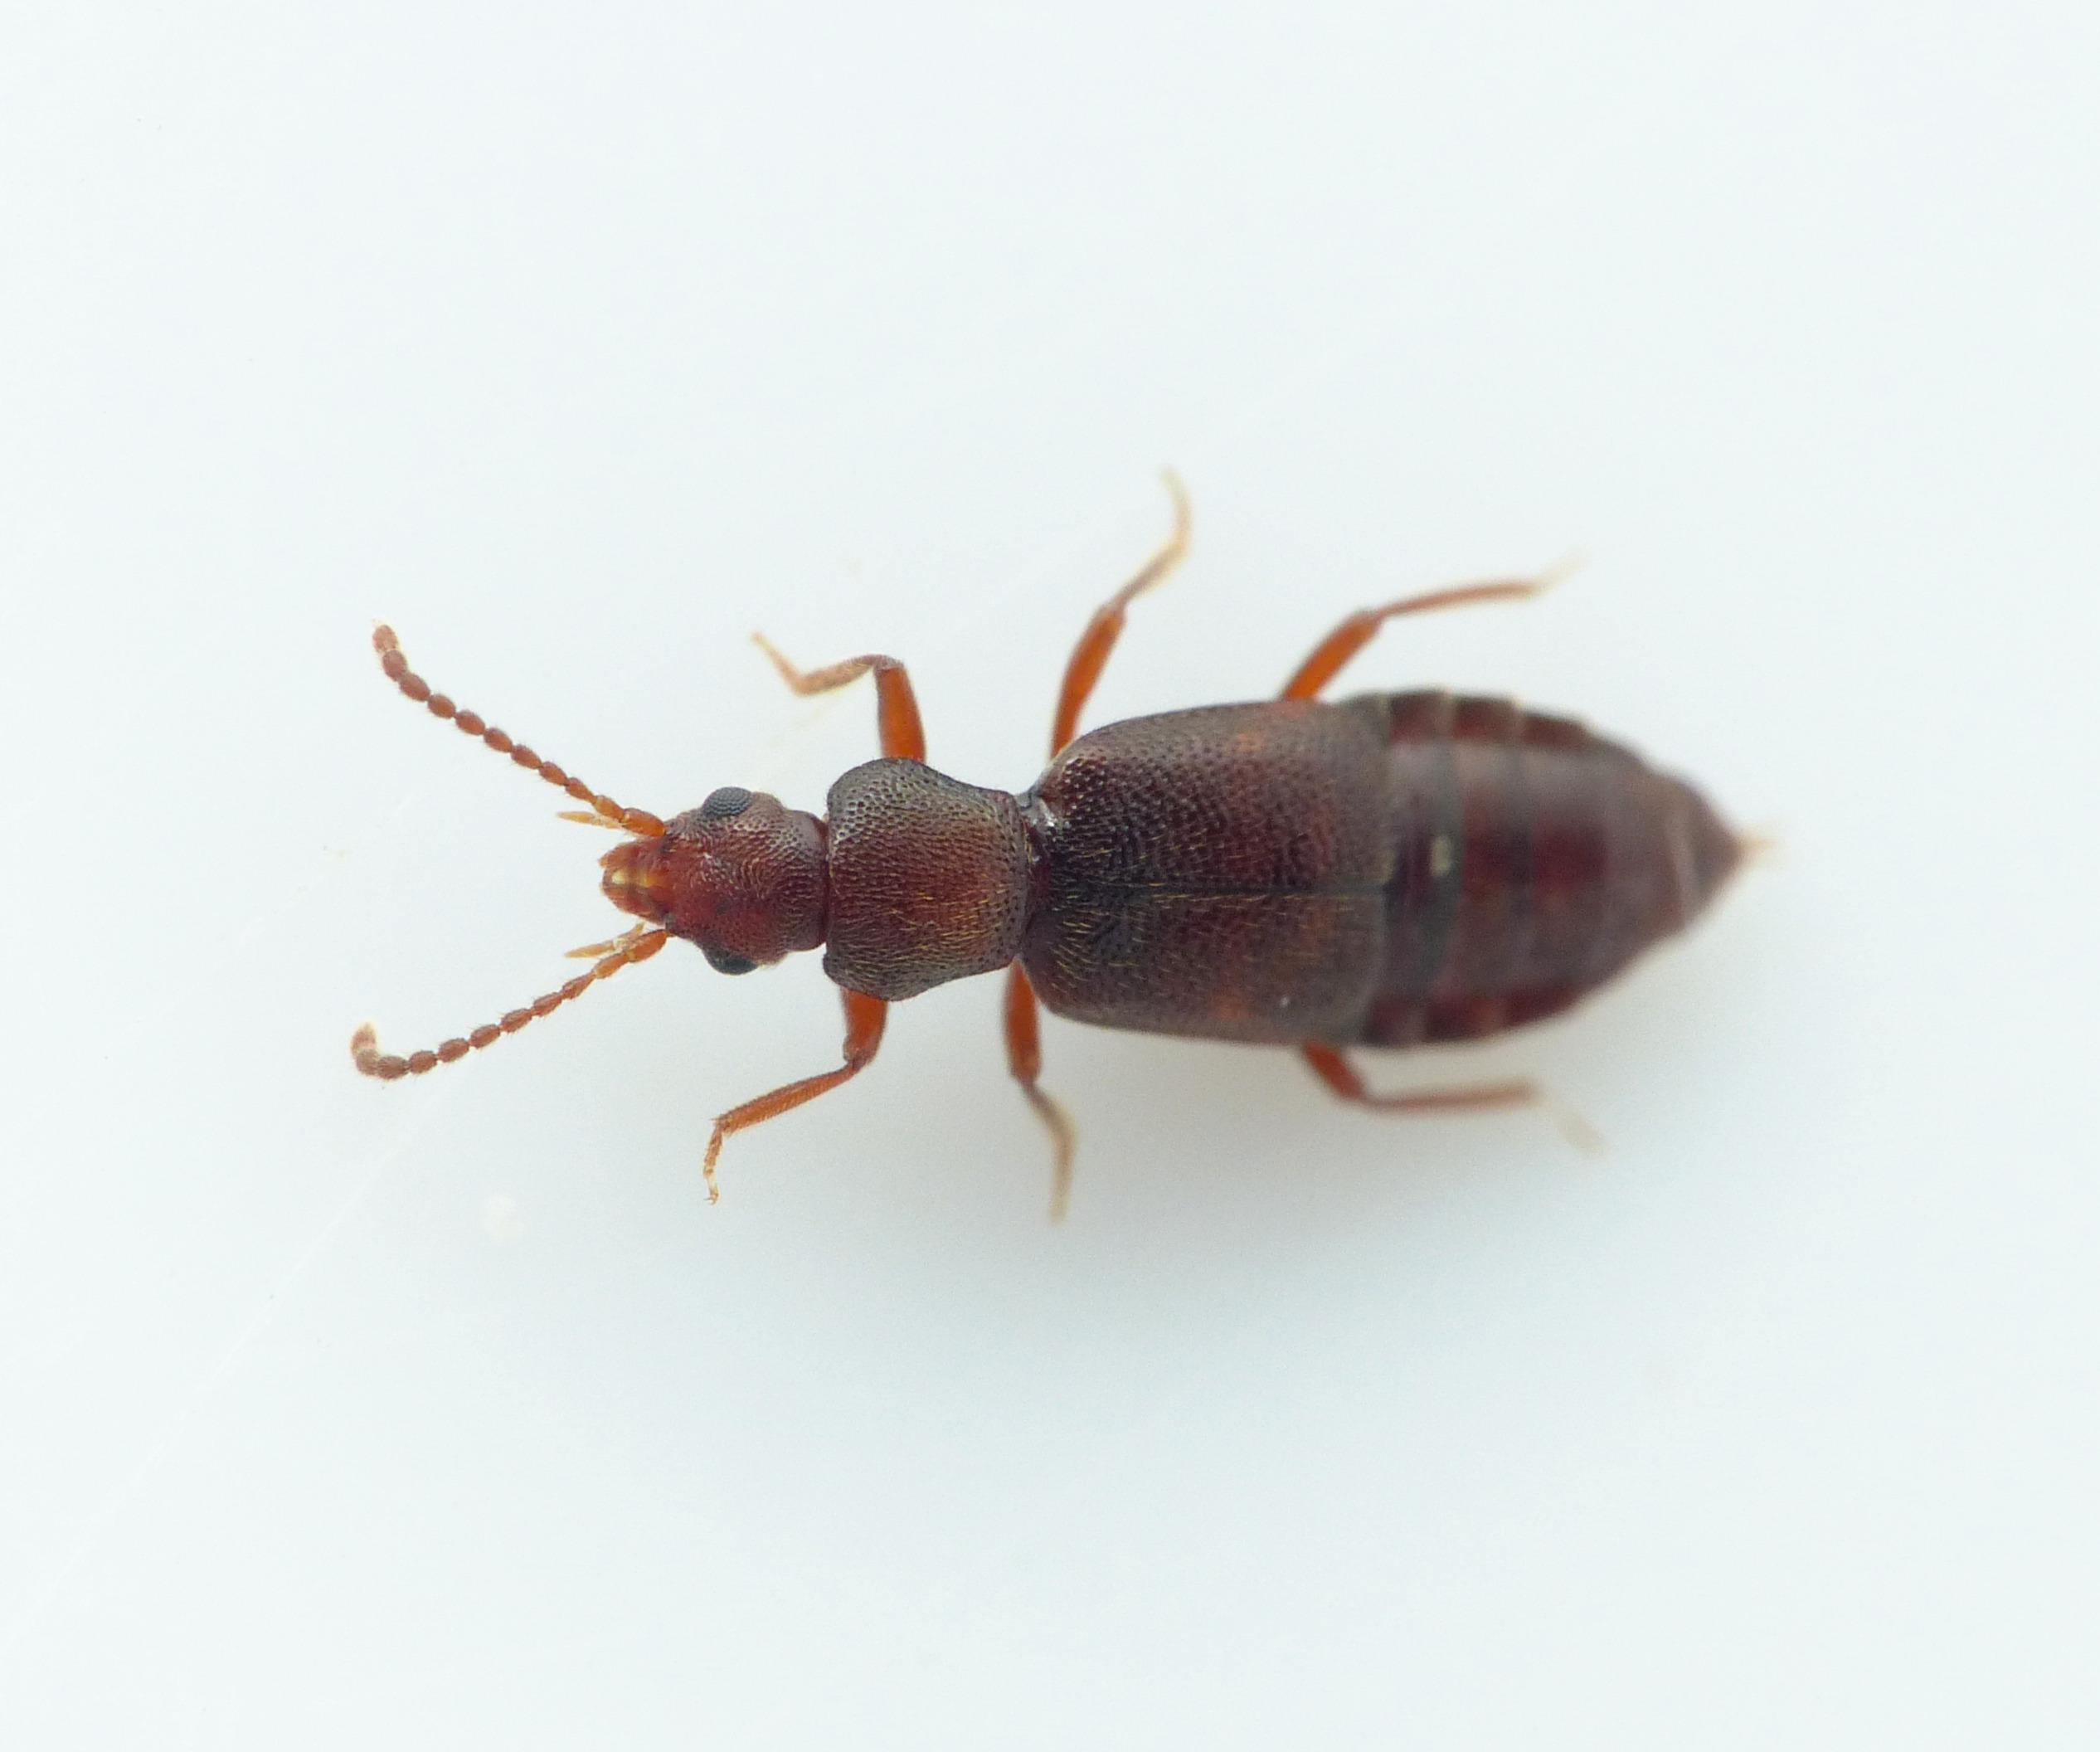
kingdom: Animalia
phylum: Arthropoda
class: Insecta
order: Coleoptera
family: Staphylinidae
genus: Lesteva
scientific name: Lesteva sicula
